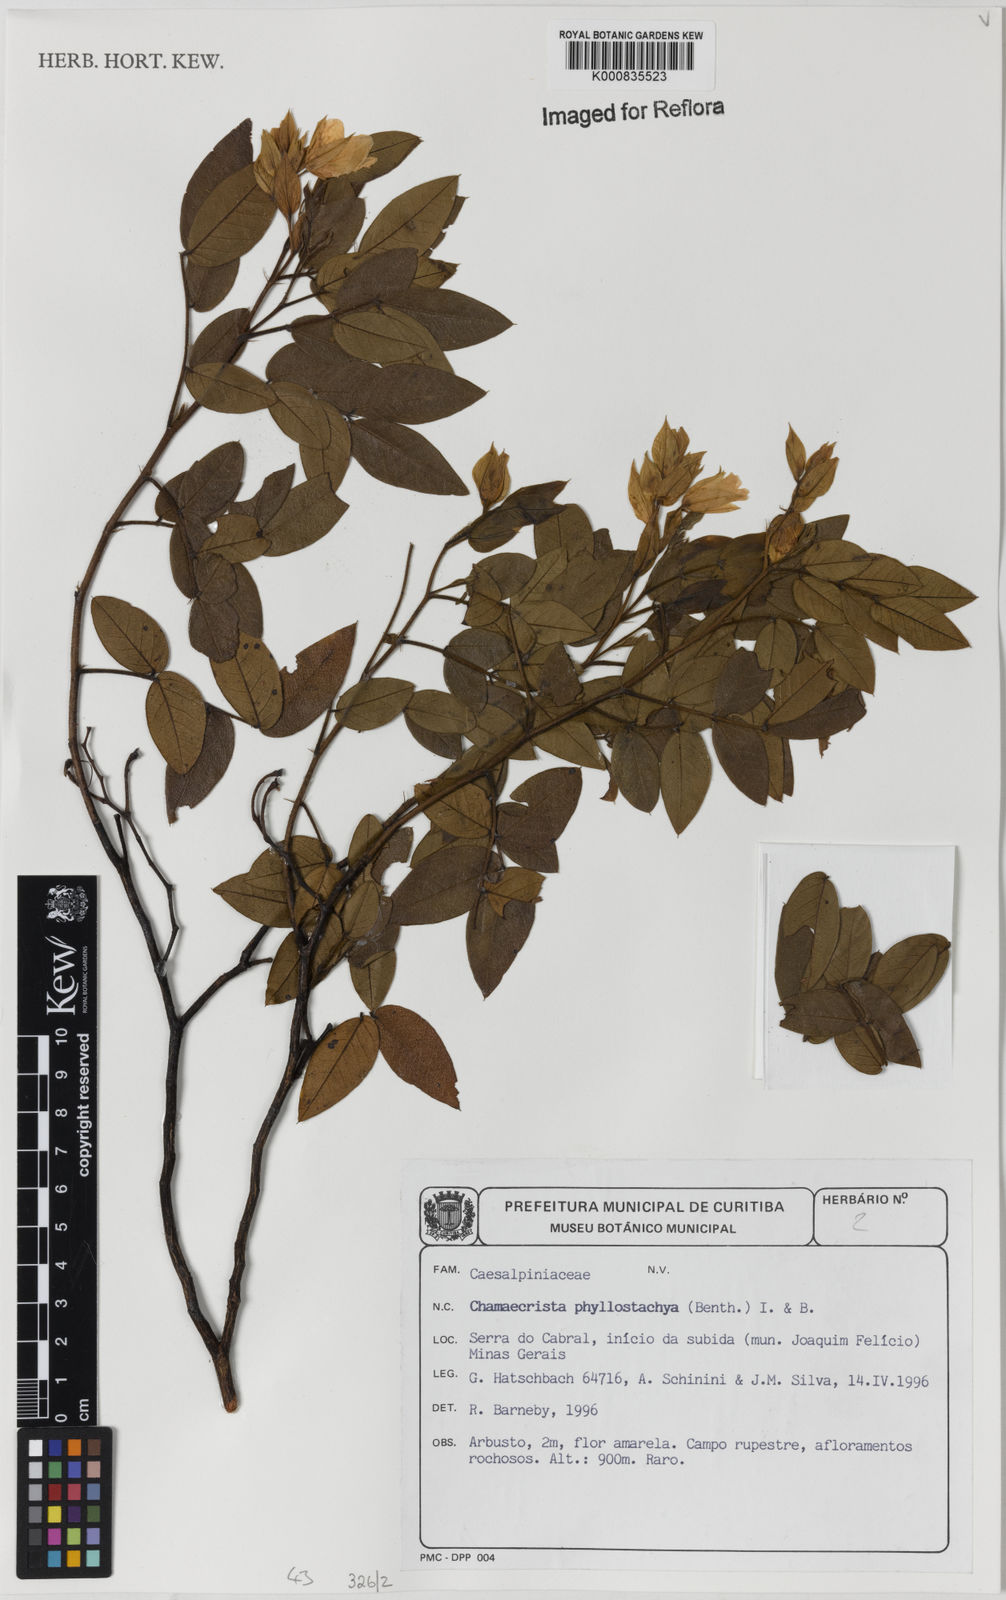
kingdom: Plantae
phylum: Tracheophyta
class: Magnoliopsida
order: Fabales
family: Fabaceae
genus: Chamaecrista
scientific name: Chamaecrista phyllostachya
